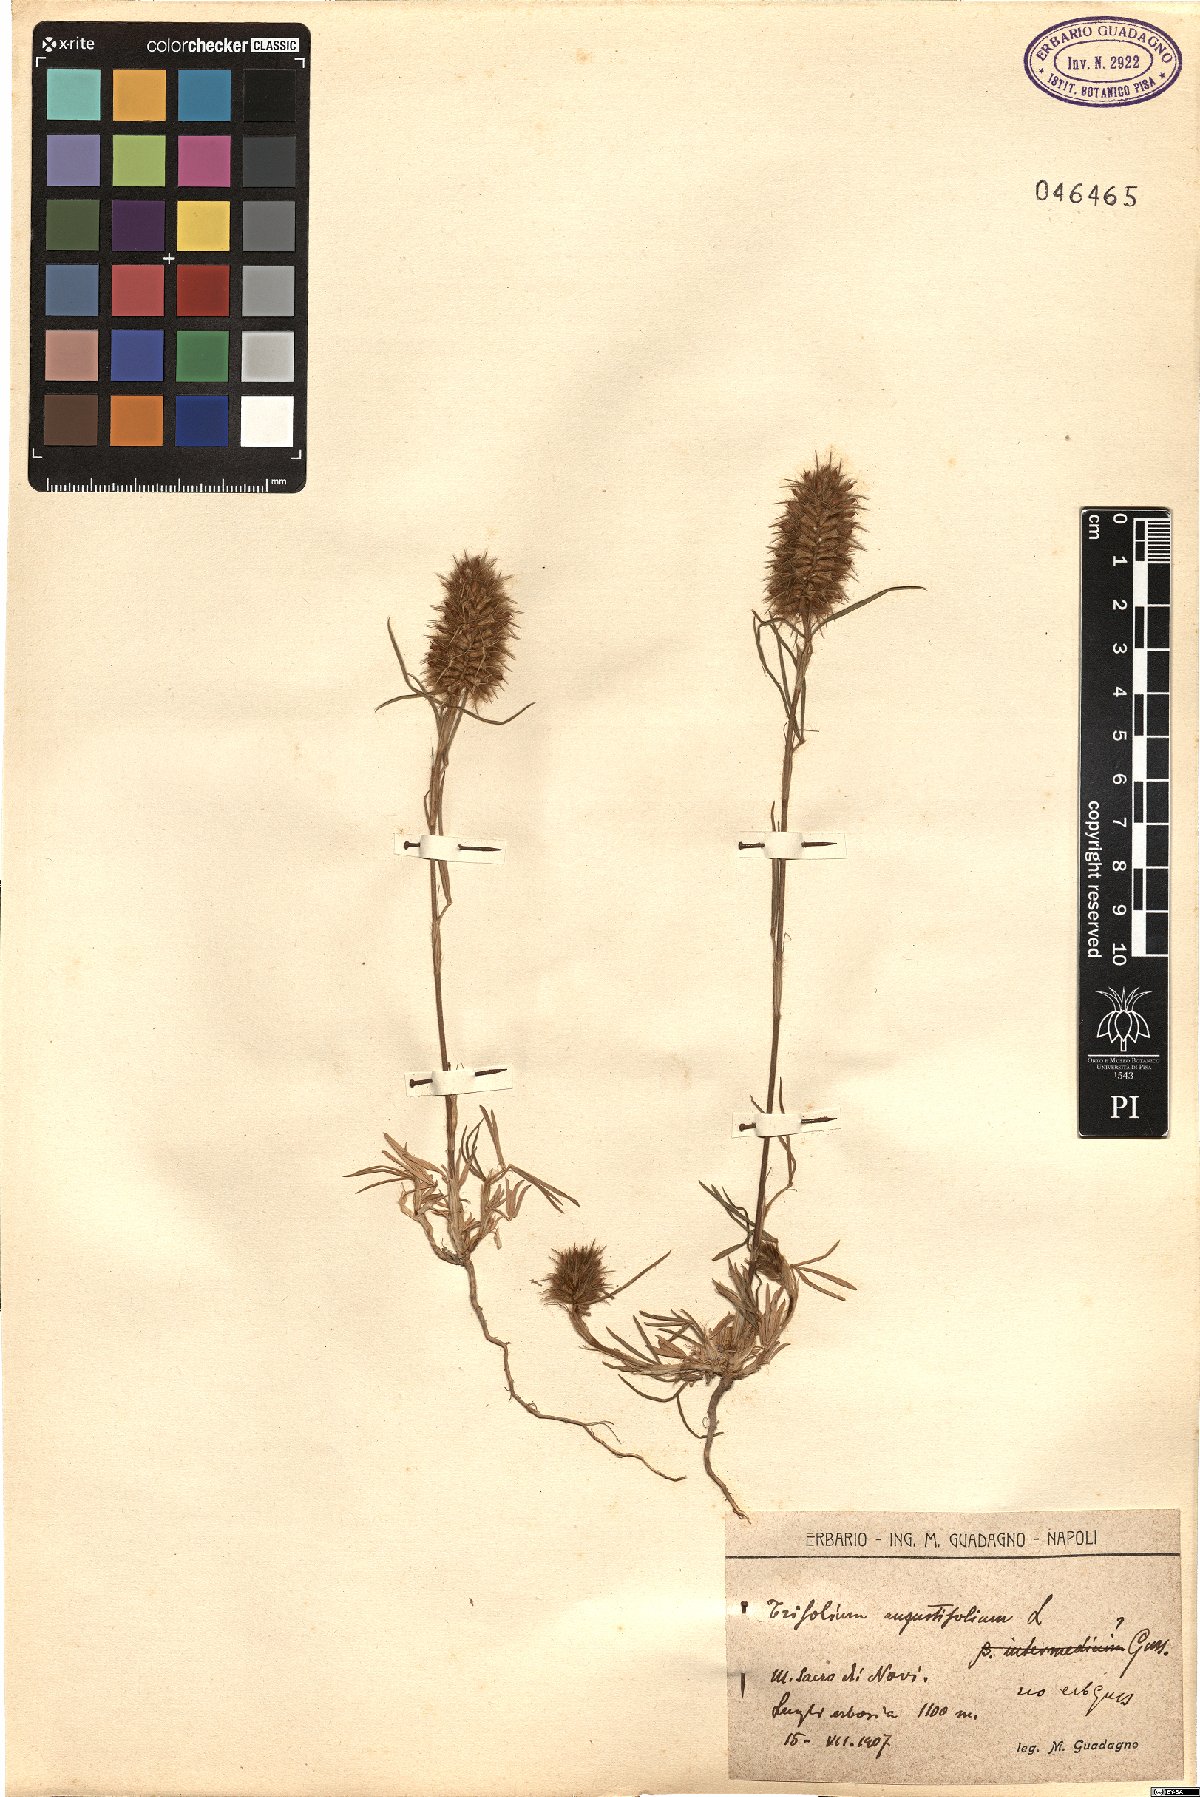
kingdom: Plantae
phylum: Tracheophyta
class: Magnoliopsida
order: Fabales
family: Fabaceae
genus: Trifolium
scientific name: Trifolium angustifolium
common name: Narrow clover
